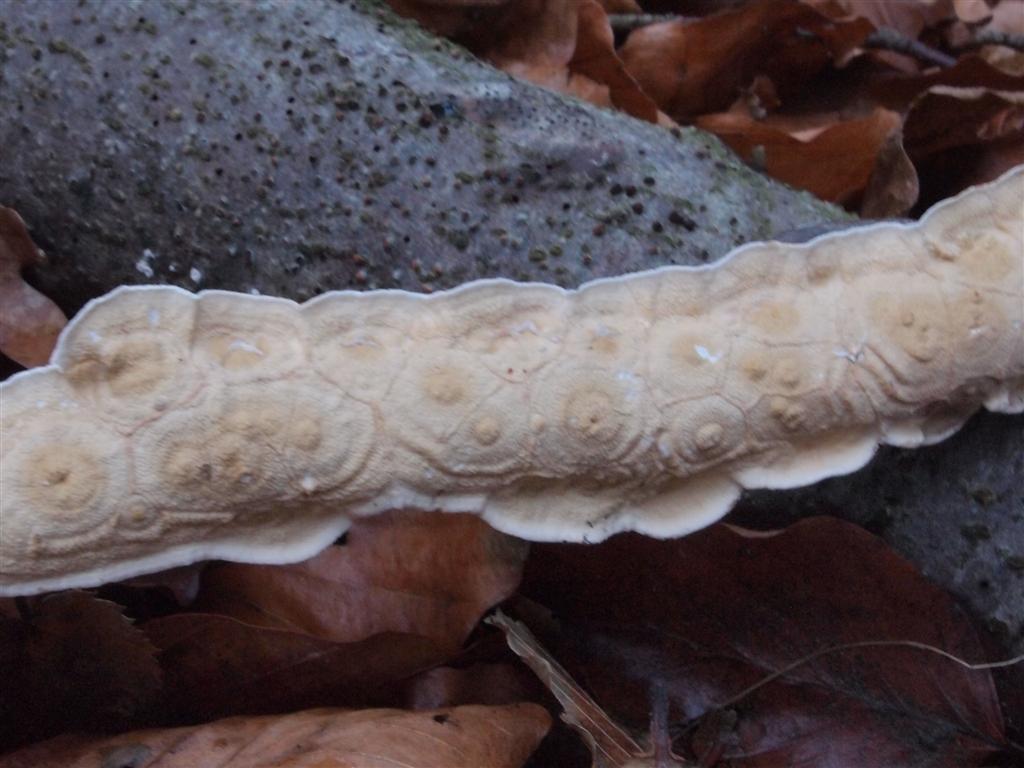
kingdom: Fungi
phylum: Basidiomycota
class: Agaricomycetes
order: Polyporales
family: Irpicaceae
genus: Byssomerulius
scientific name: Byssomerulius corium
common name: læder-åresvamp
